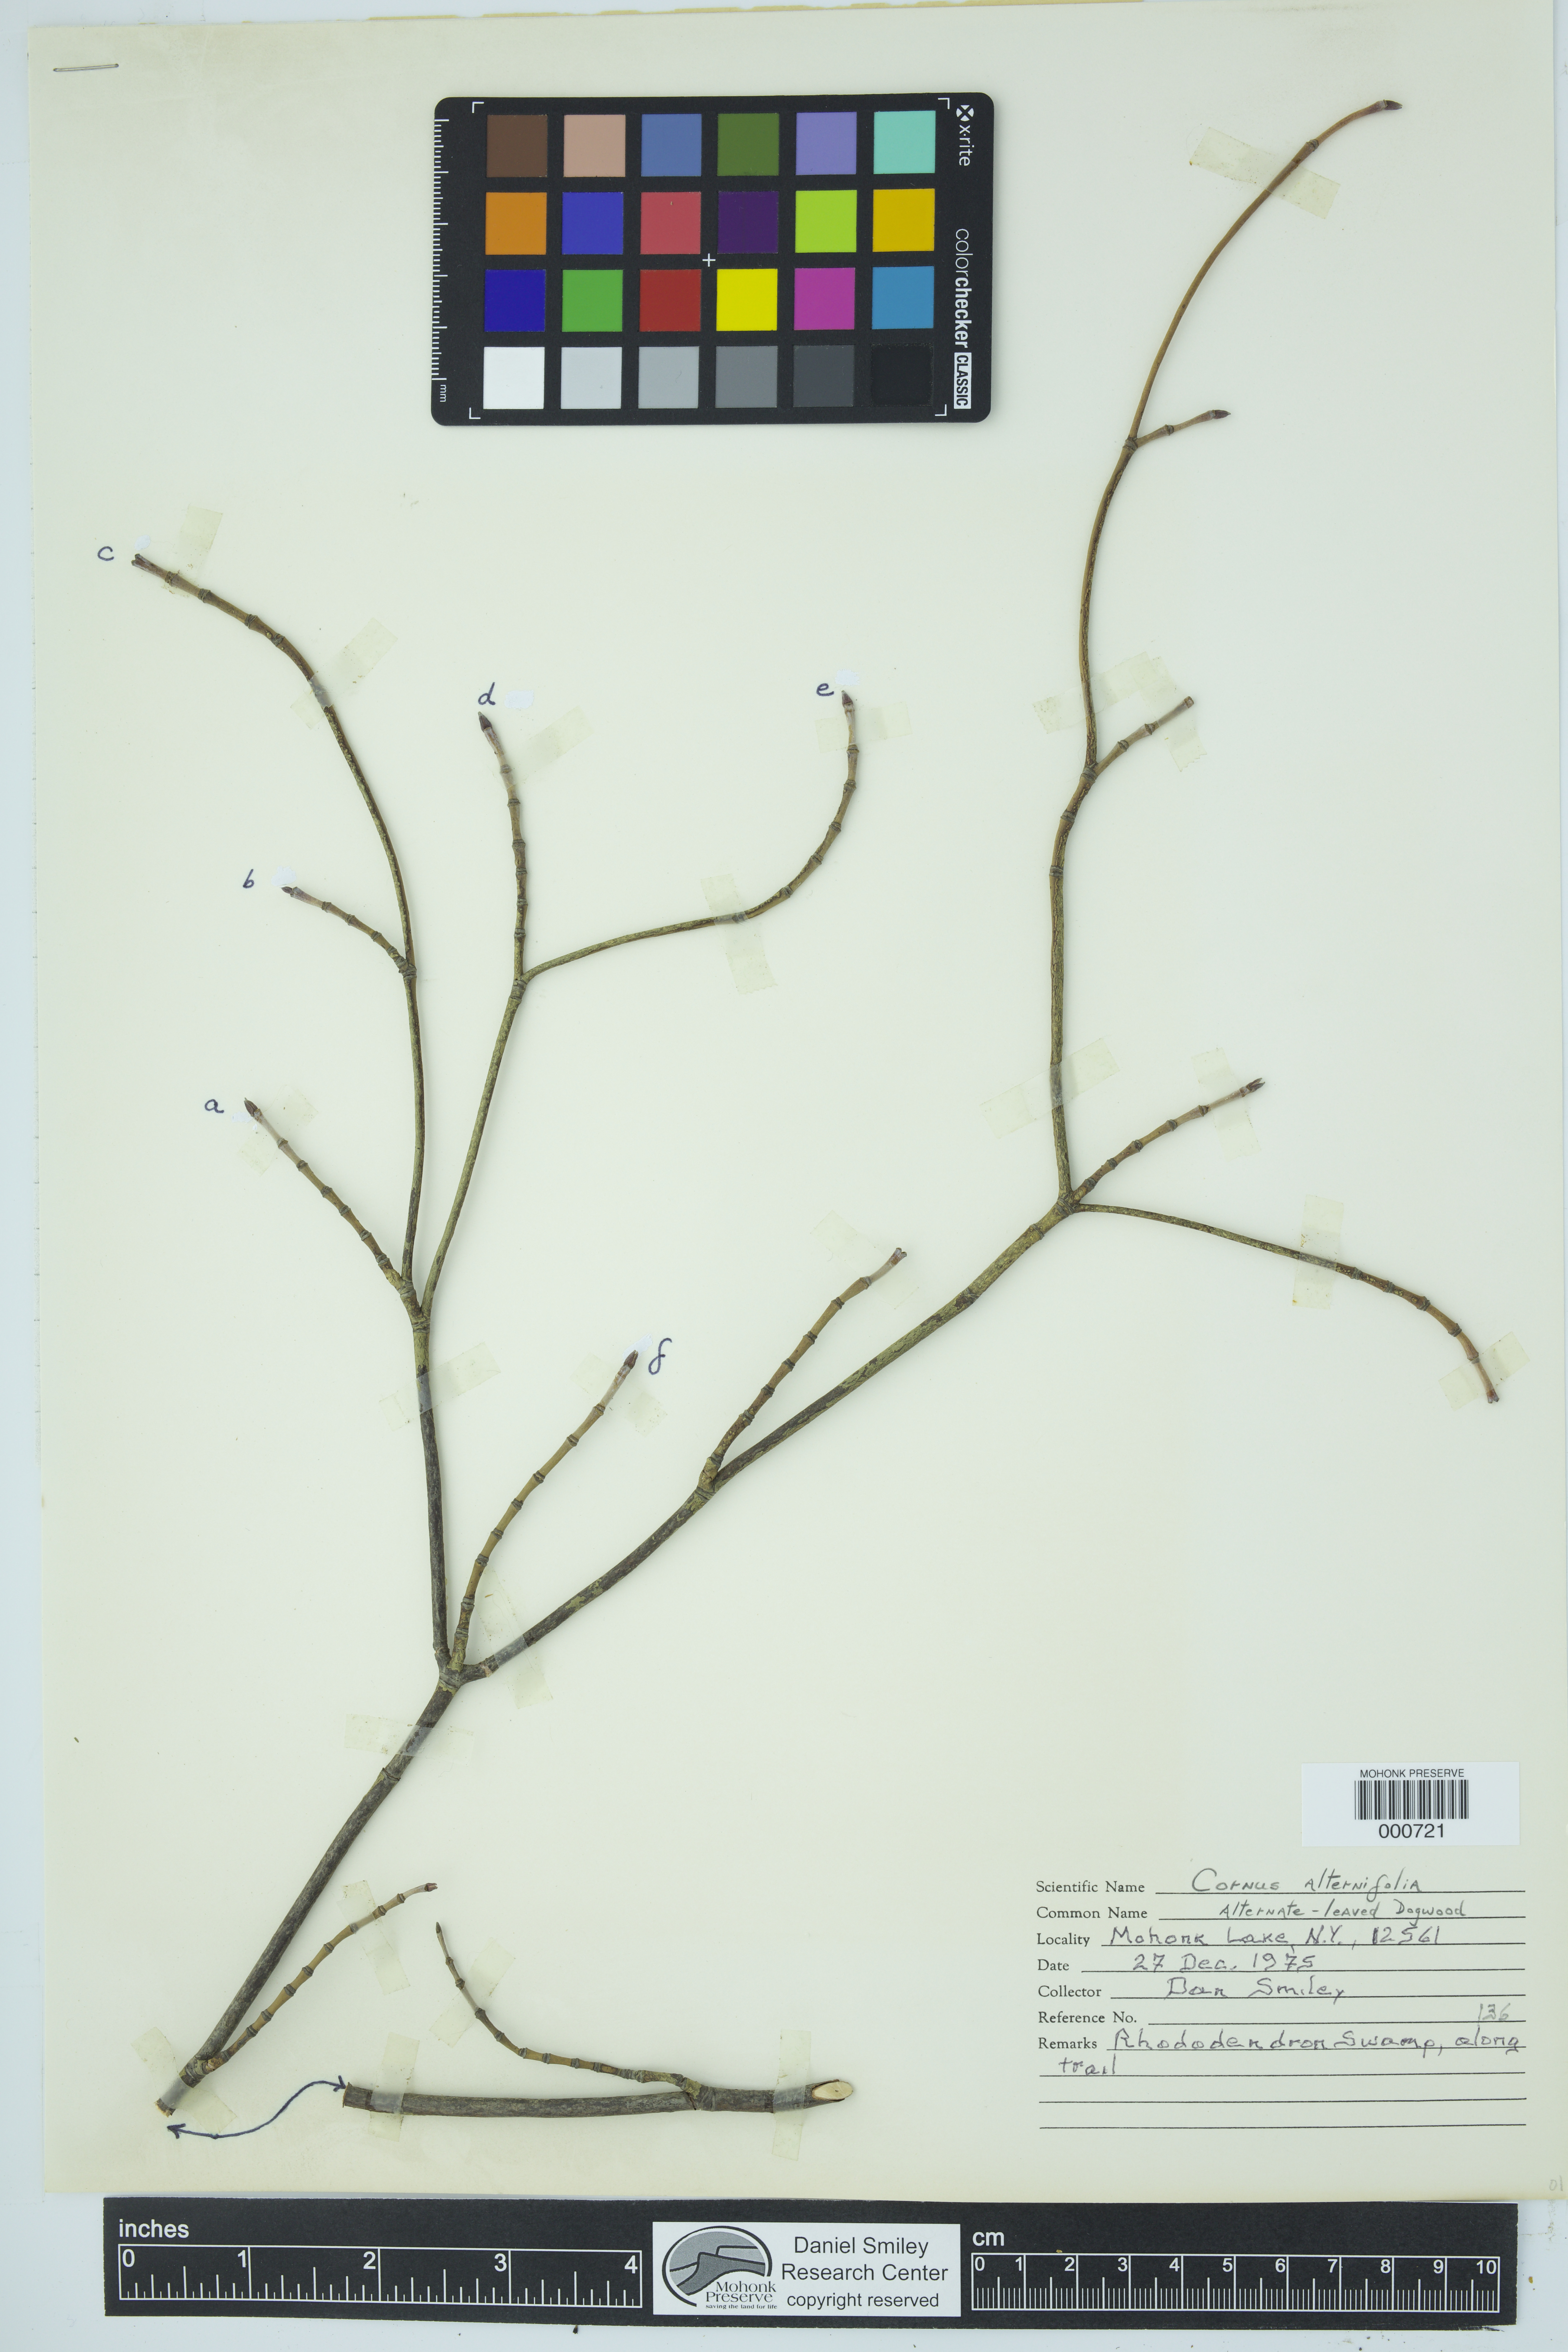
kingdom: Plantae
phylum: Tracheophyta
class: Magnoliopsida
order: Cornales
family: Cornaceae
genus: Cornus
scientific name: Cornus alternifolia
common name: Pagoda dogwood
